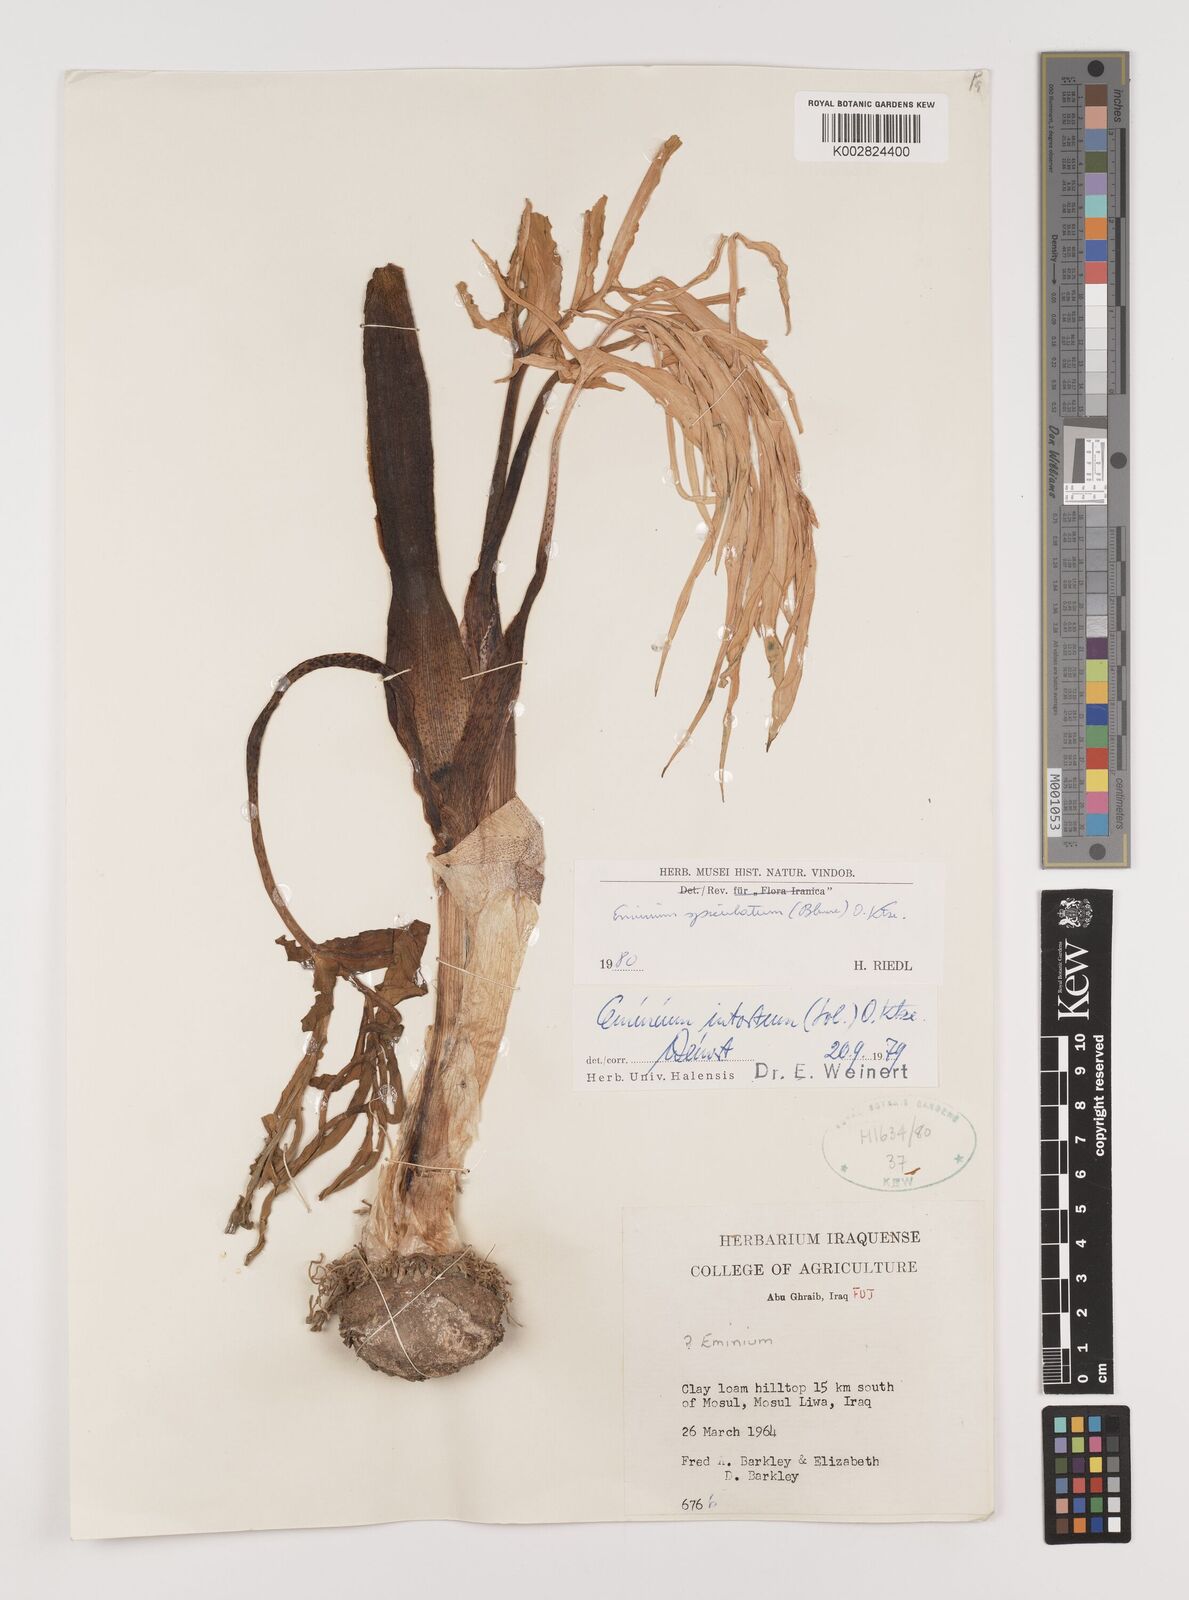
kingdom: Plantae
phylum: Tracheophyta
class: Liliopsida
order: Alismatales
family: Araceae
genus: Eminium
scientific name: Eminium spiculatum
